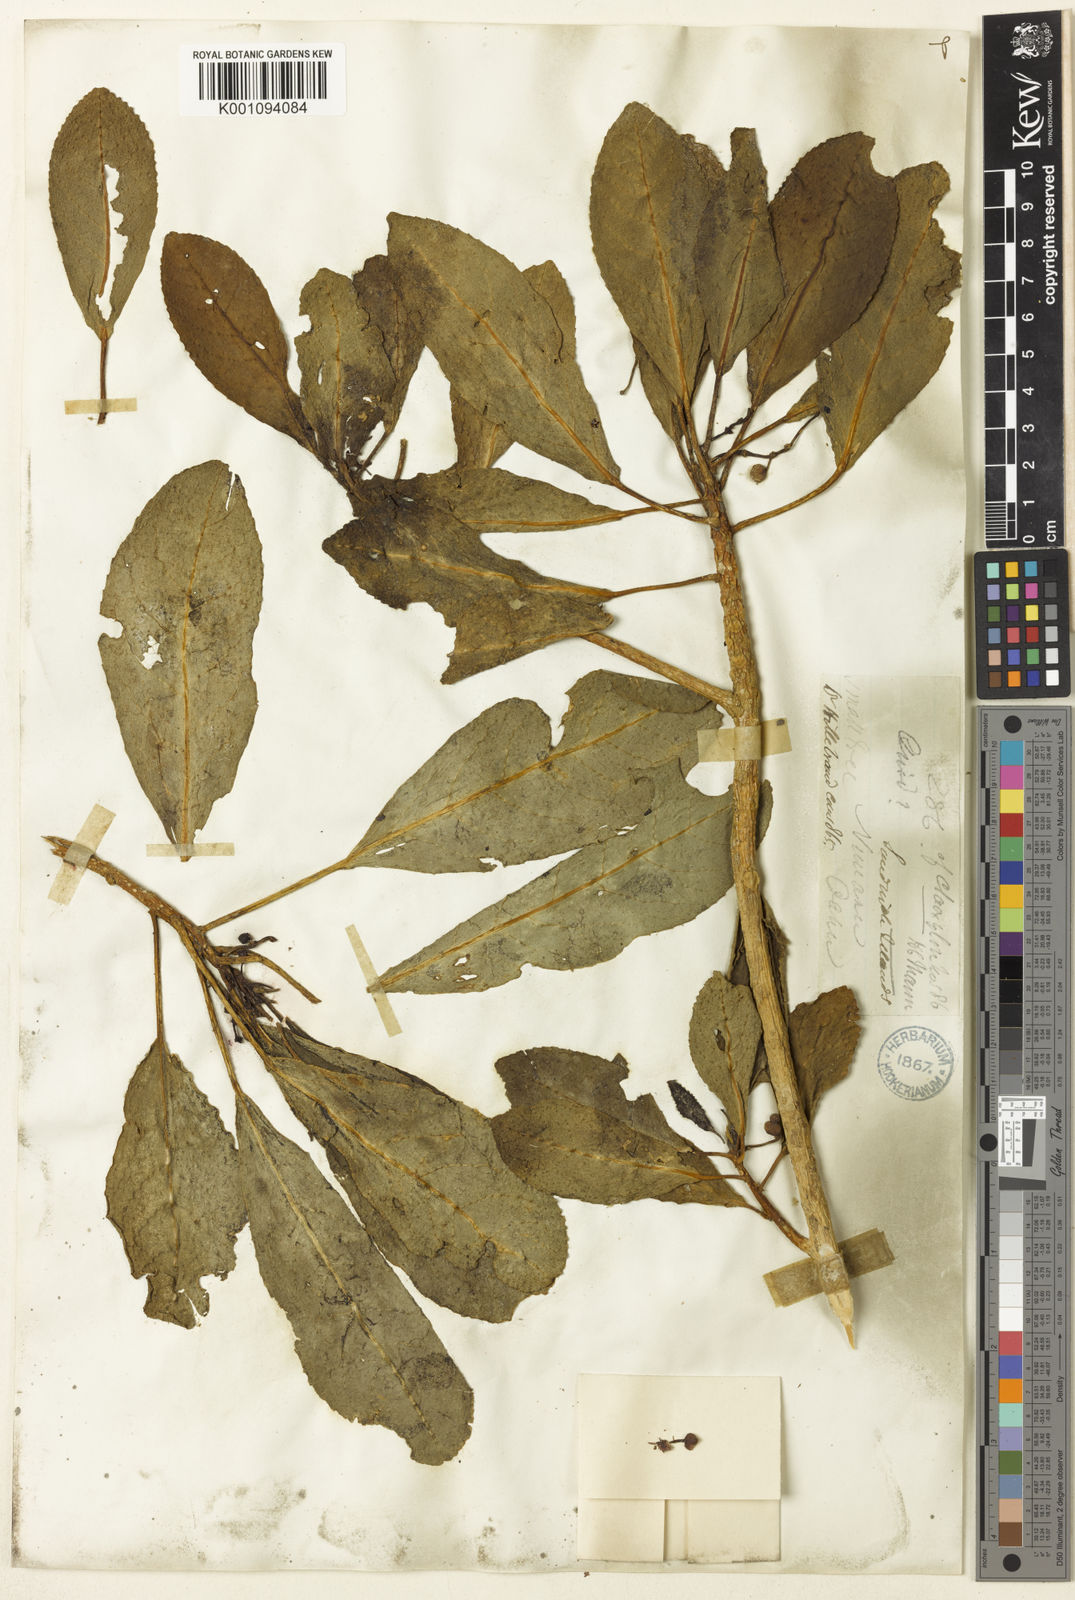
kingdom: Plantae
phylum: Tracheophyta
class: Magnoliopsida
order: Malpighiales
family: Euphorbiaceae
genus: Claoxylon
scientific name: Claoxylon
